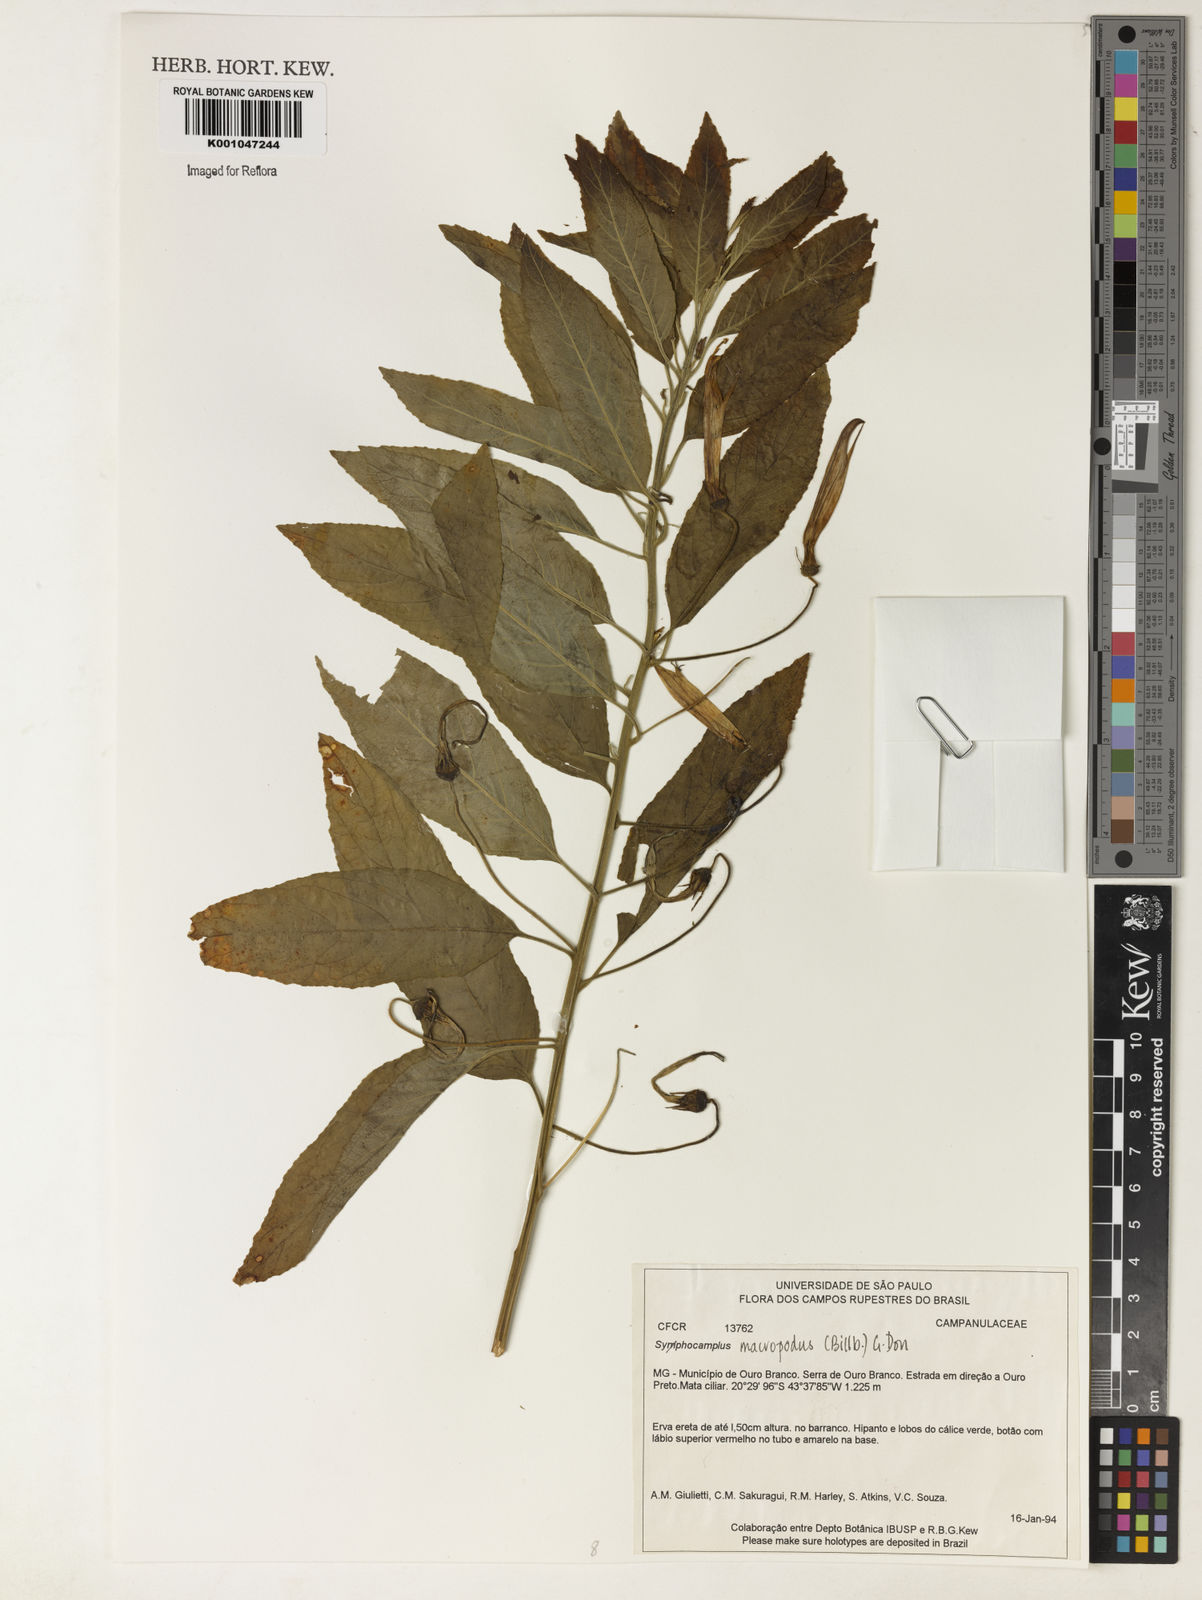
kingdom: Plantae
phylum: Tracheophyta
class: Magnoliopsida
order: Asterales
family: Campanulaceae
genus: Siphocampylus
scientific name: Siphocampylus macropodus
